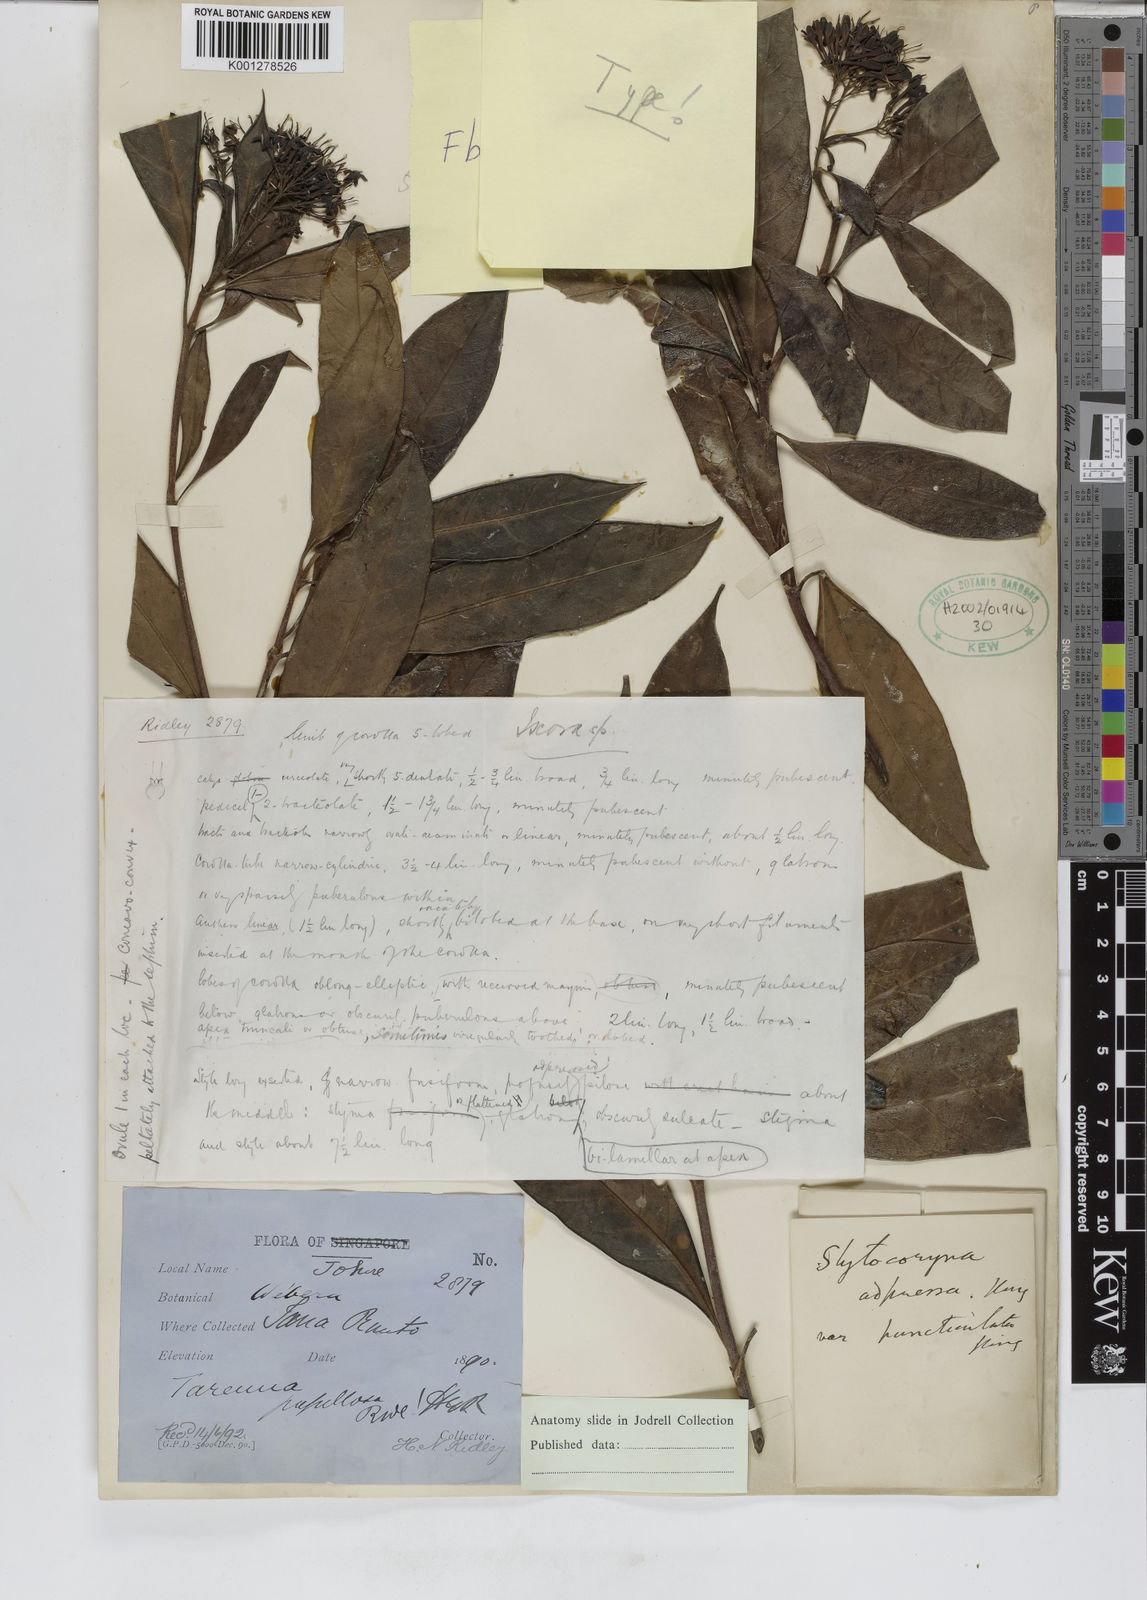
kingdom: Plantae
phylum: Tracheophyta
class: Magnoliopsida
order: Gentianales
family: Rubiaceae
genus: Tarenna
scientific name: Tarenna adpressa
